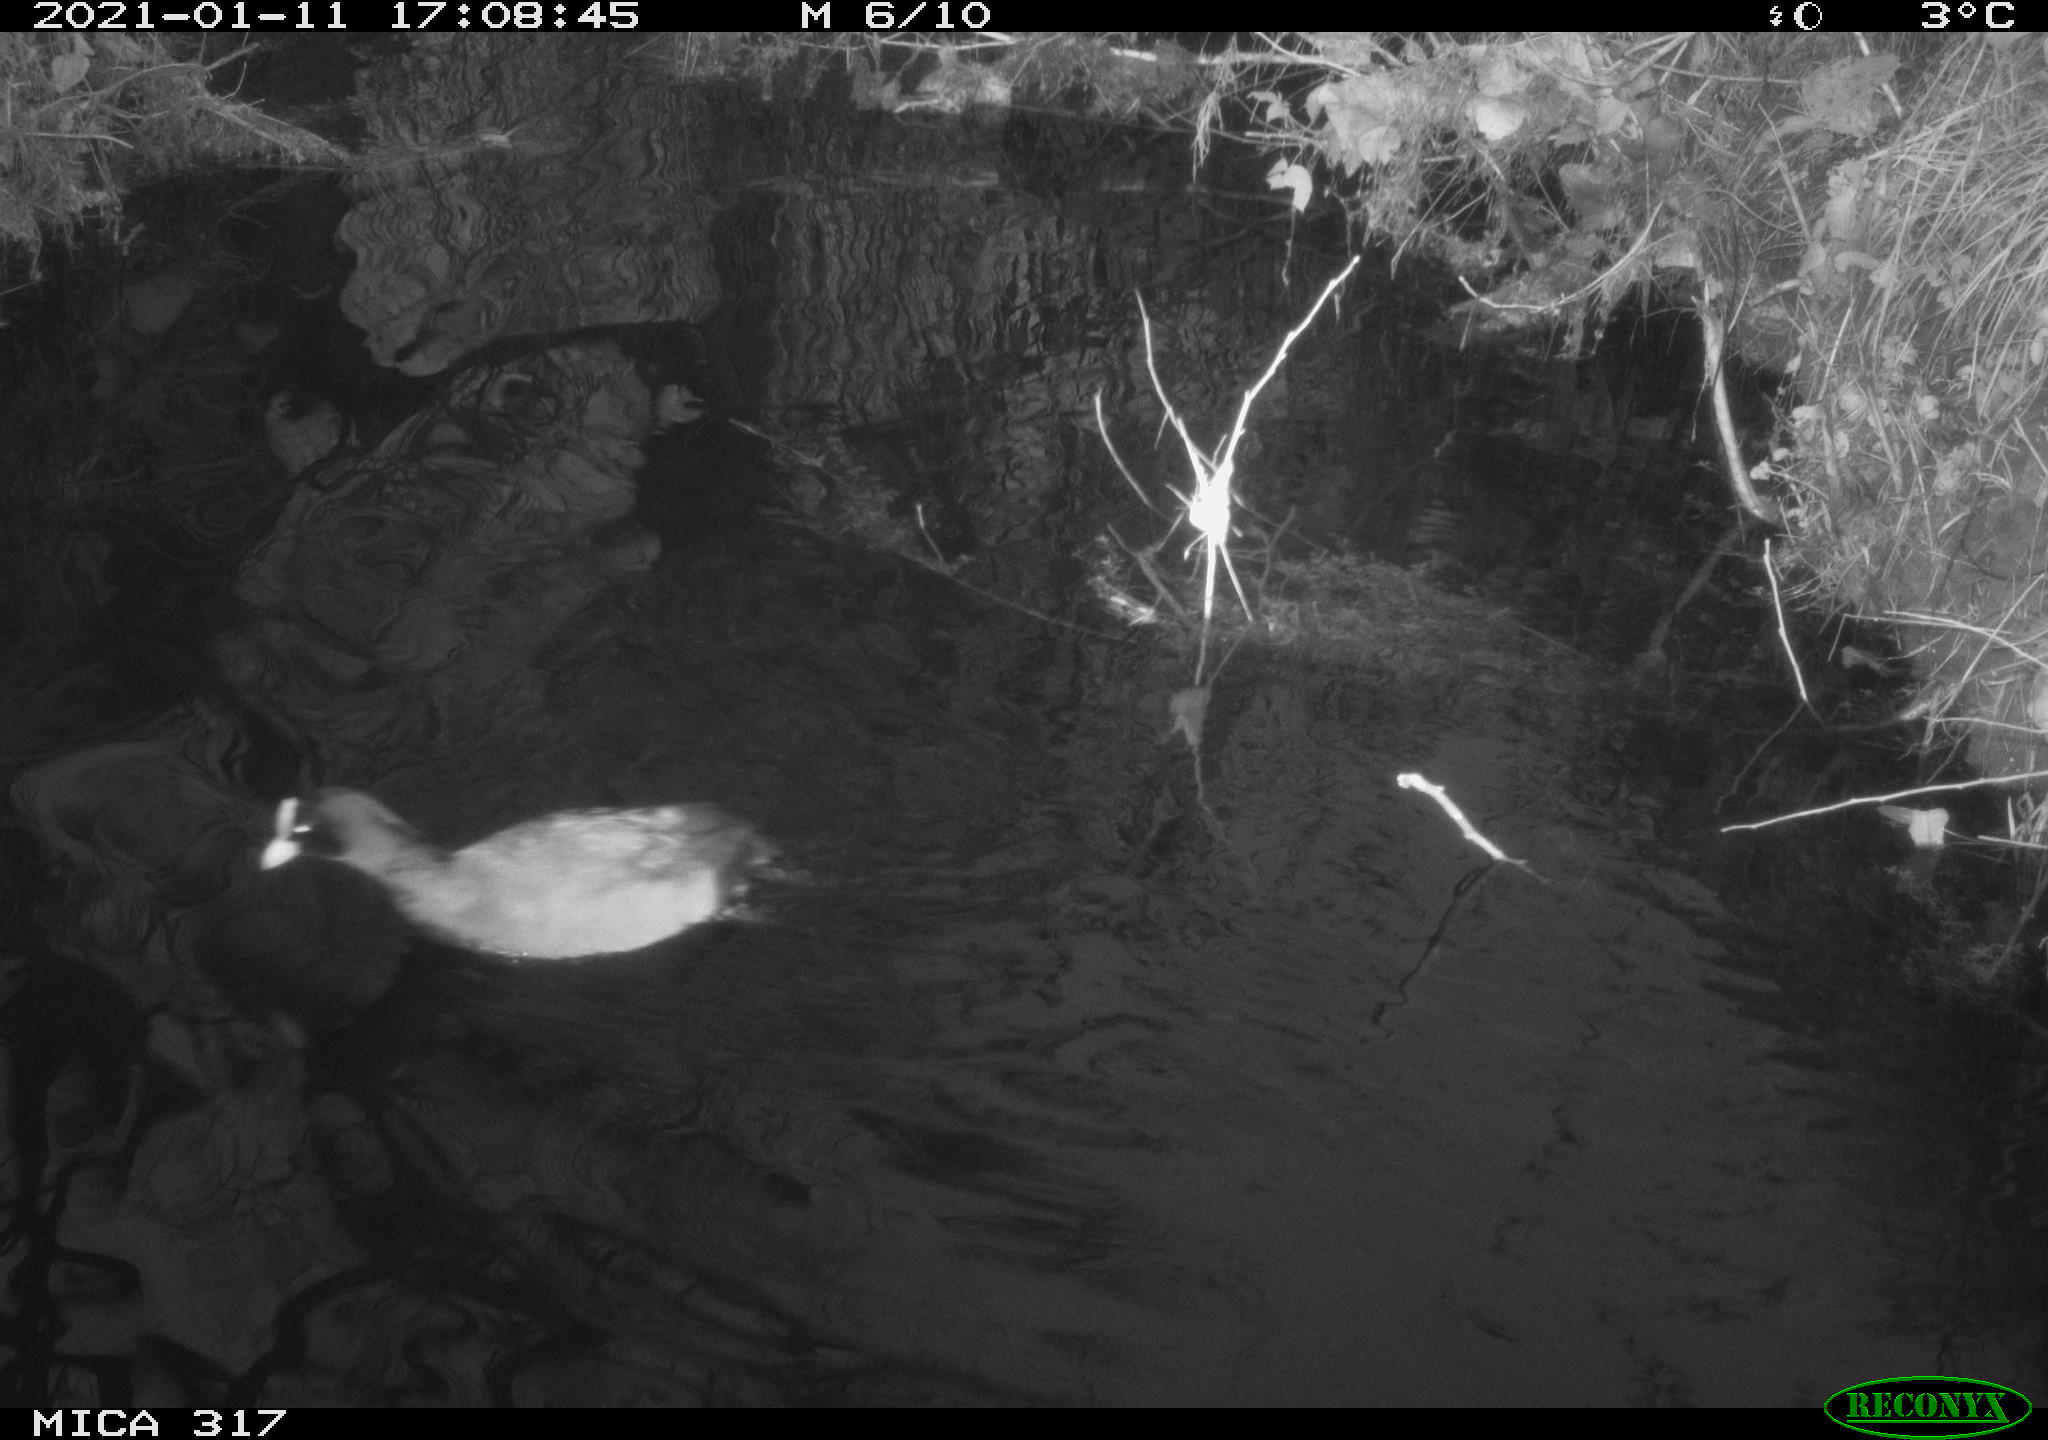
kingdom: Animalia
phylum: Chordata
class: Aves
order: Gruiformes
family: Rallidae
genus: Fulica
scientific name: Fulica atra
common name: Eurasian coot
